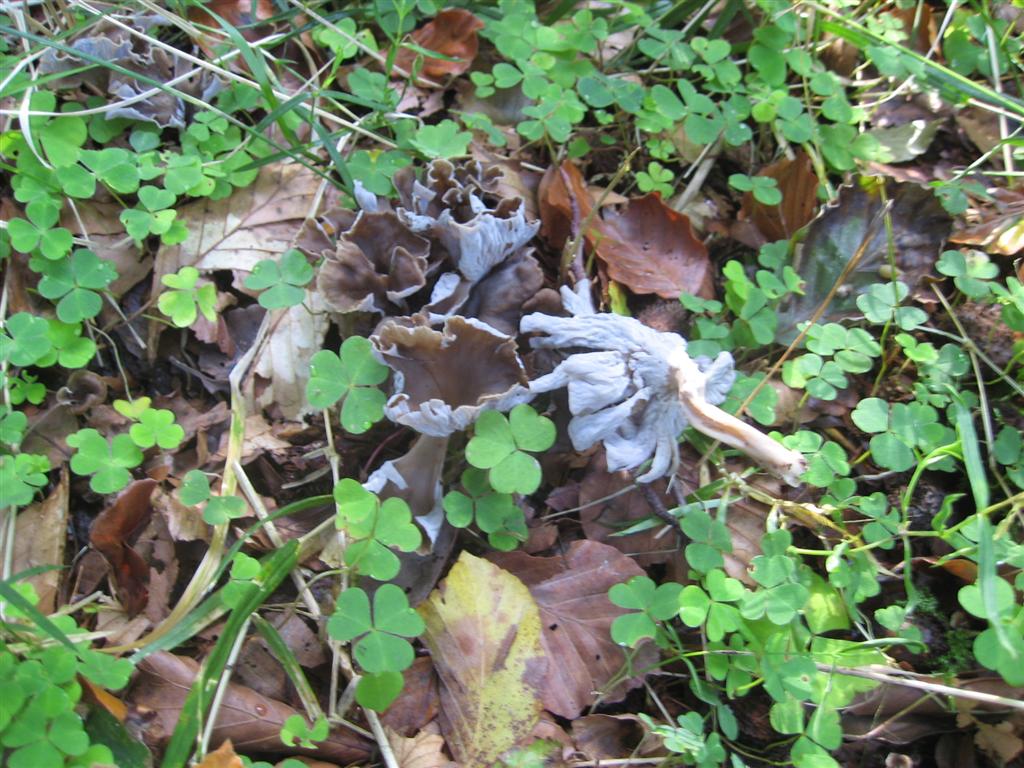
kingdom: Fungi
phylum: Basidiomycota
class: Agaricomycetes
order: Cantharellales
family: Hydnaceae
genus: Craterellus
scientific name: Craterellus undulatus
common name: liden kantarel
